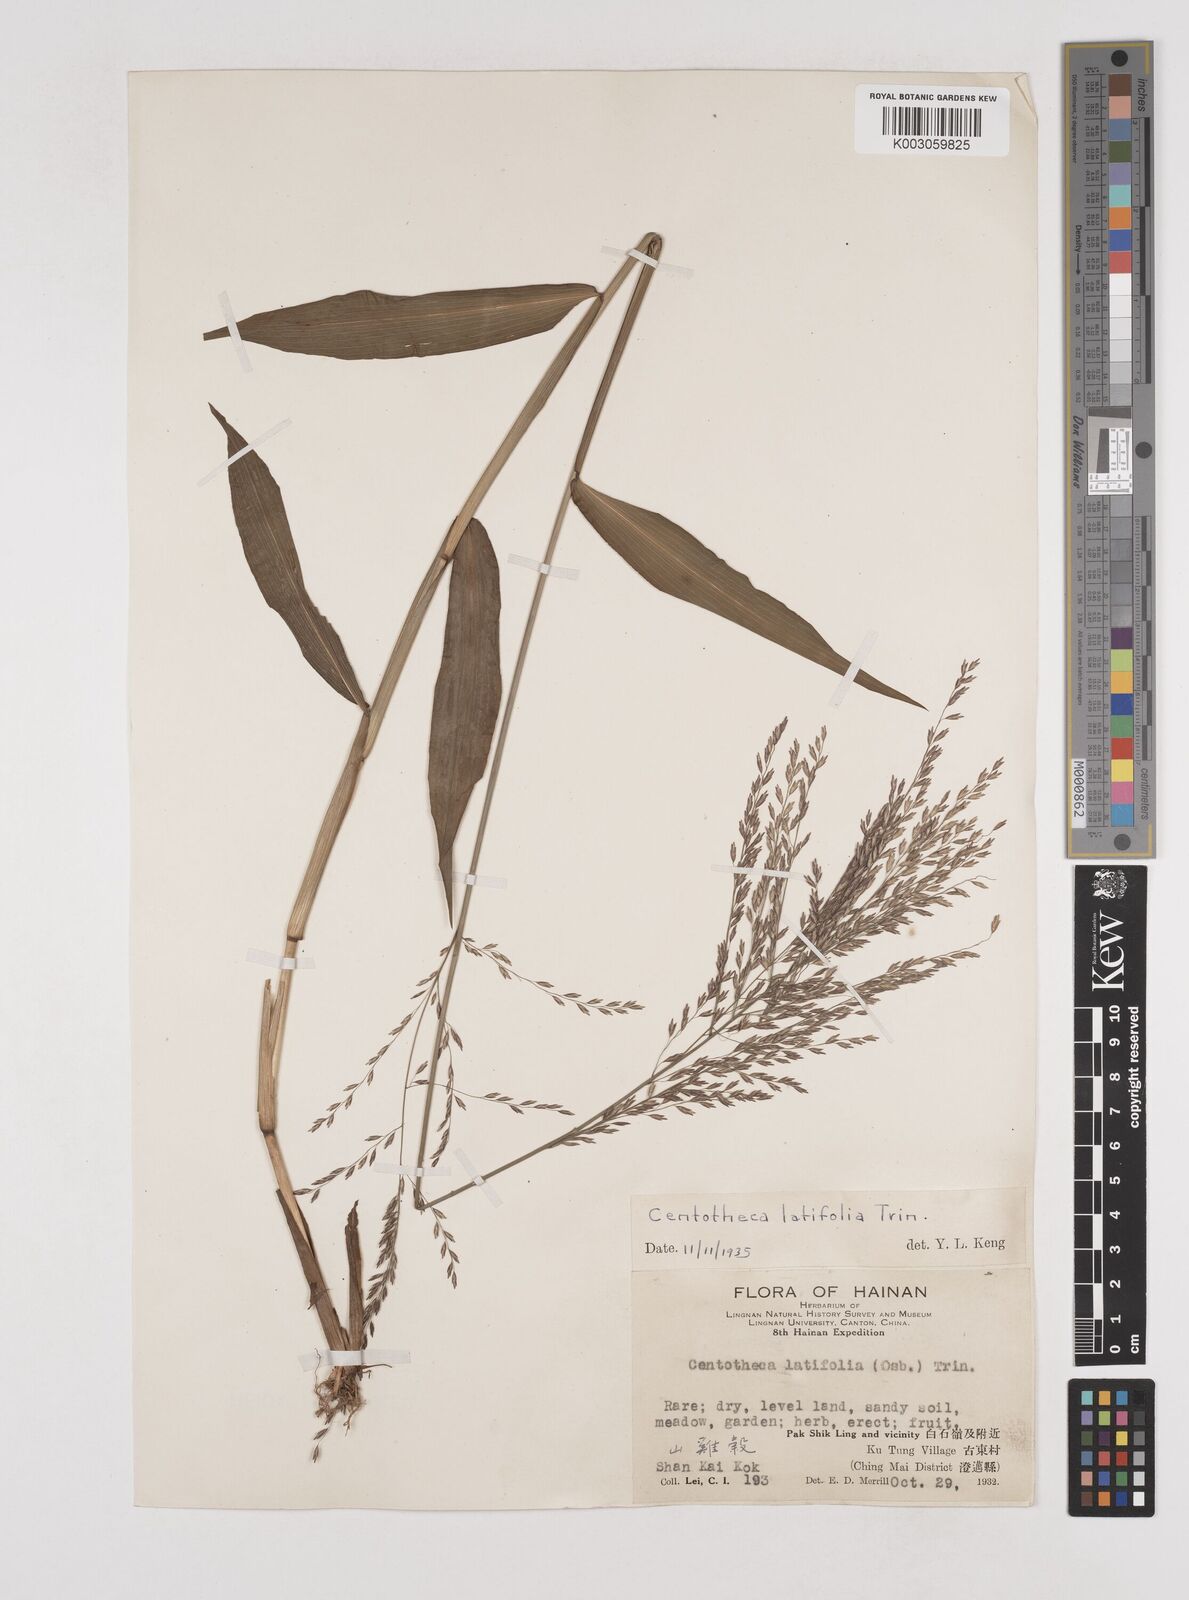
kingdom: Plantae
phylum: Tracheophyta
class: Liliopsida
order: Poales
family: Poaceae
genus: Centotheca
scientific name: Centotheca lappacea
